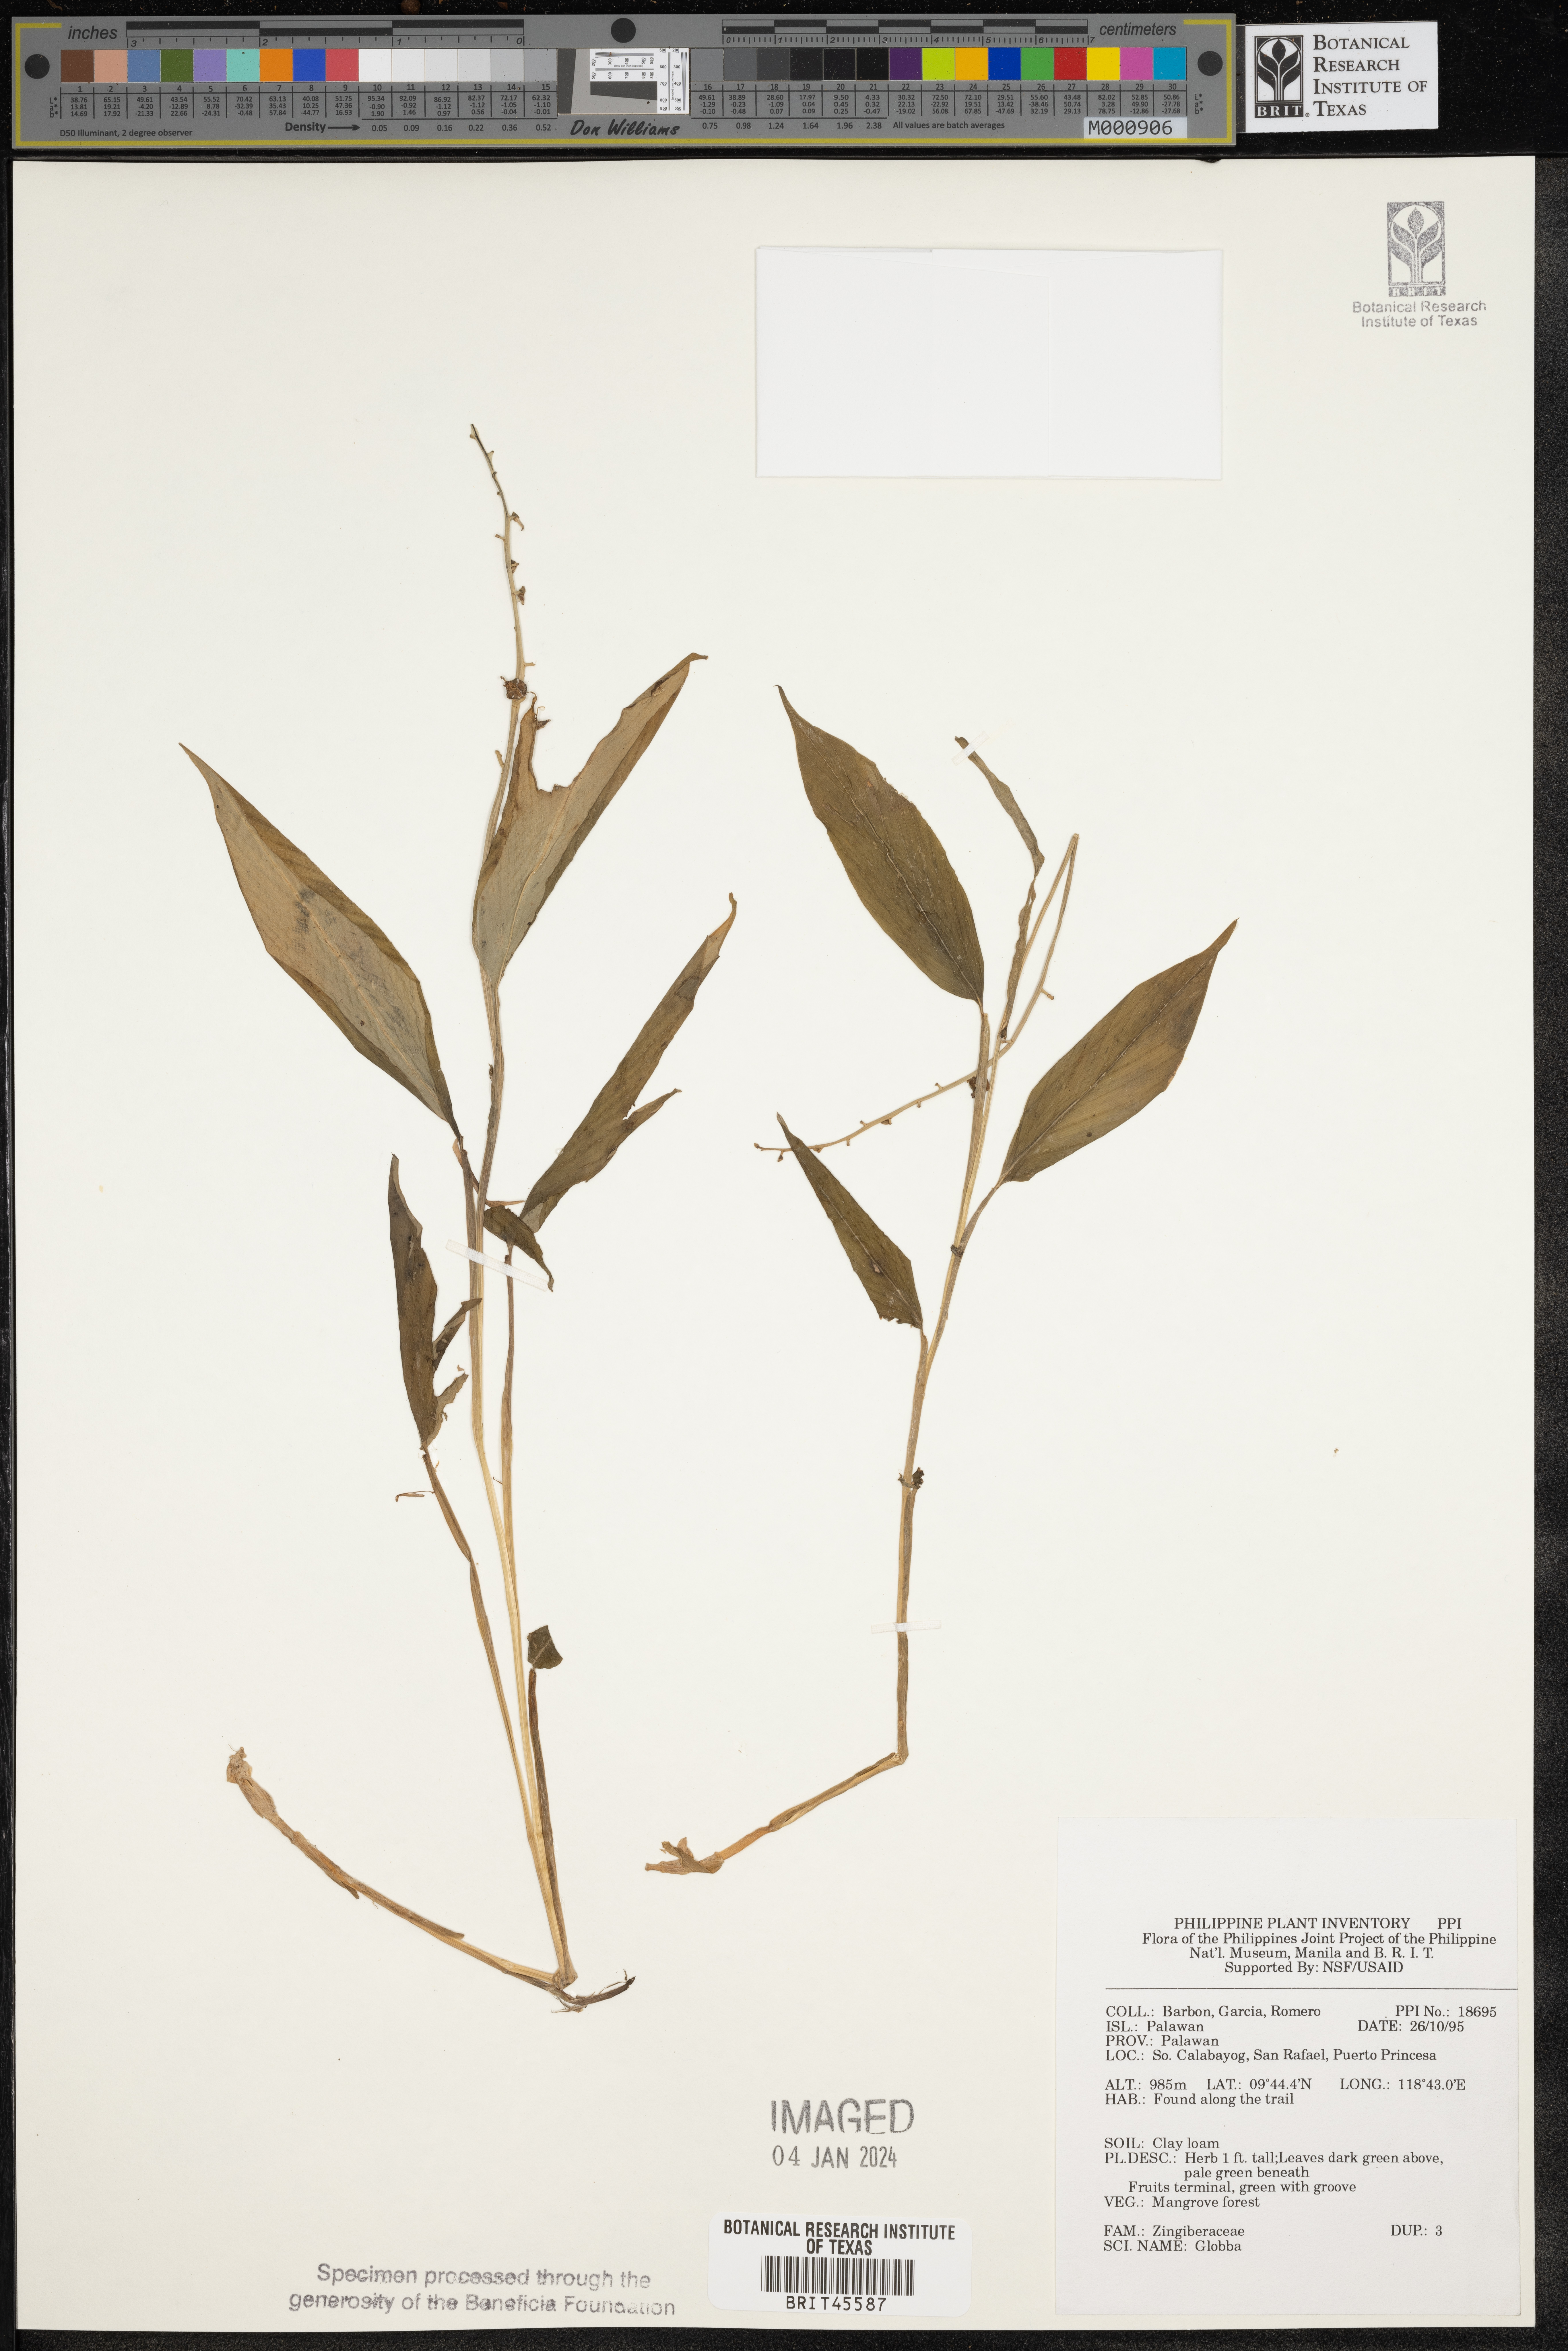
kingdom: Plantae
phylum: Tracheophyta
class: Liliopsida
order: Zingiberales
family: Zingiberaceae
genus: Globba
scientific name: Globba
